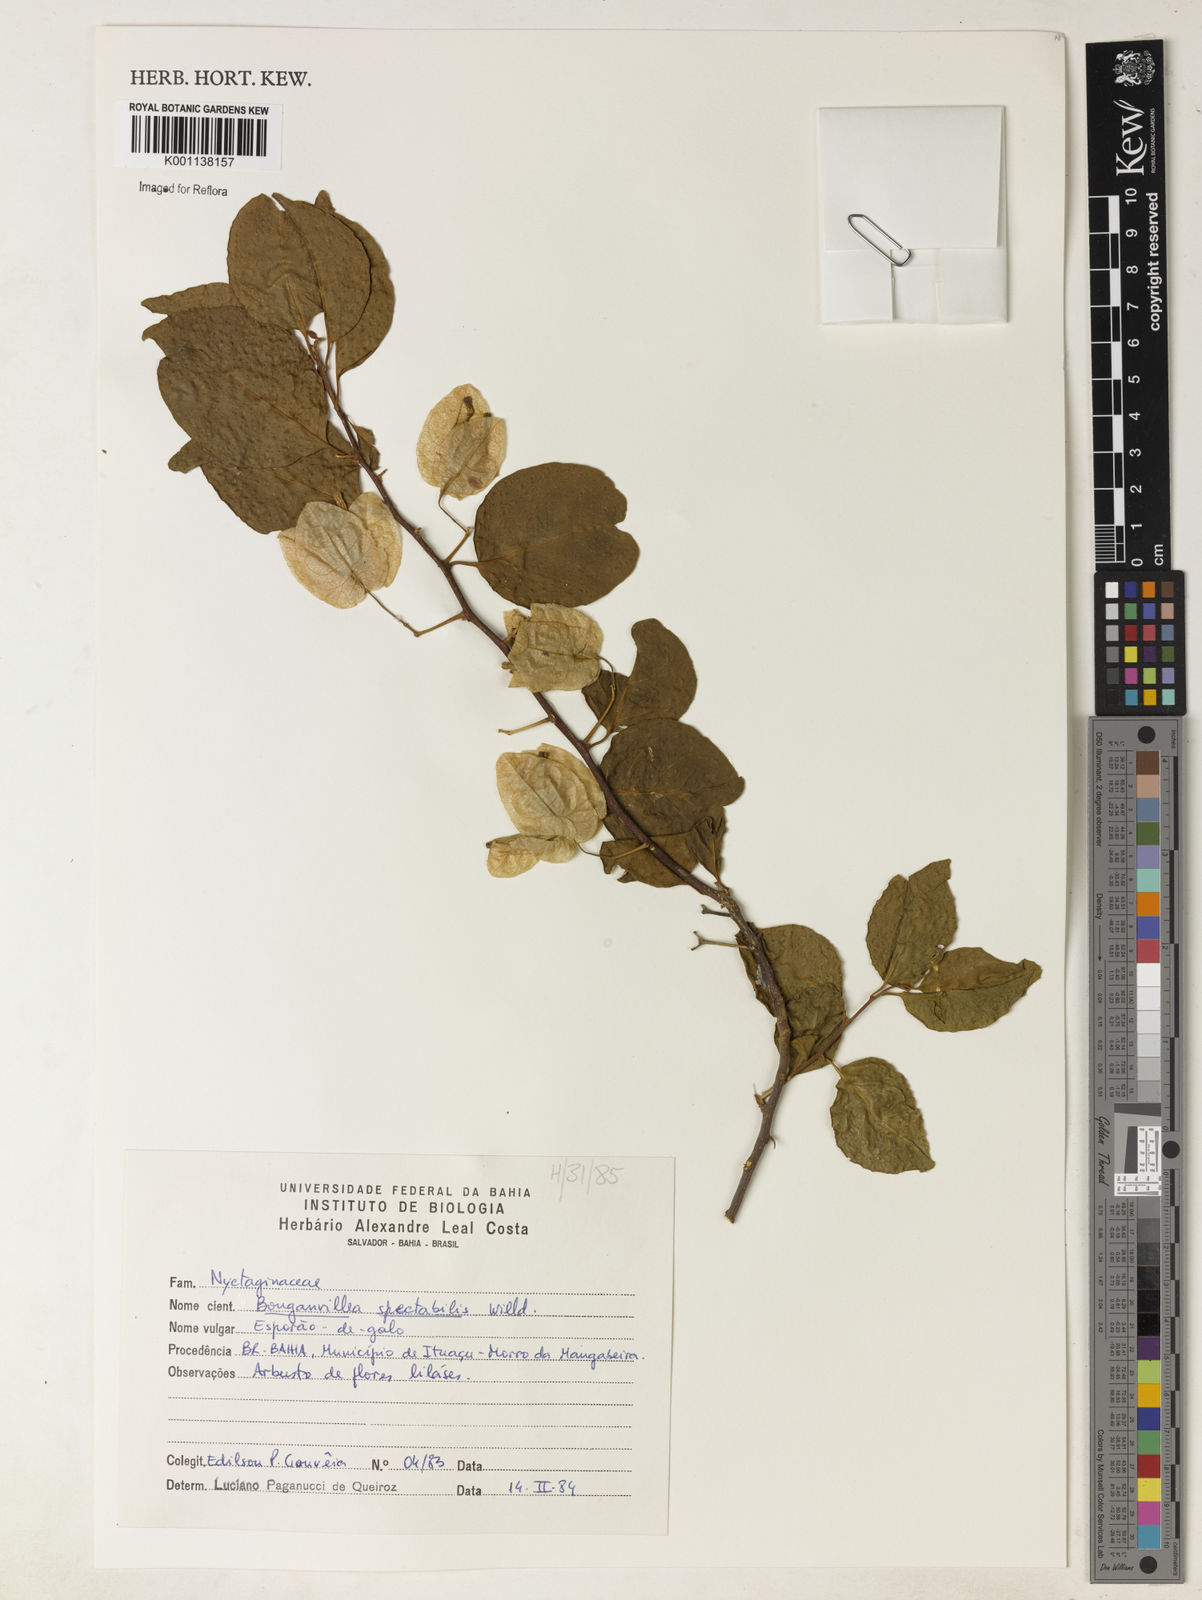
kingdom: Plantae
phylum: Tracheophyta
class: Magnoliopsida
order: Caryophyllales
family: Nyctaginaceae
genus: Bougainvillea
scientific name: Bougainvillea spectabilis
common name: Great bougainvillea
